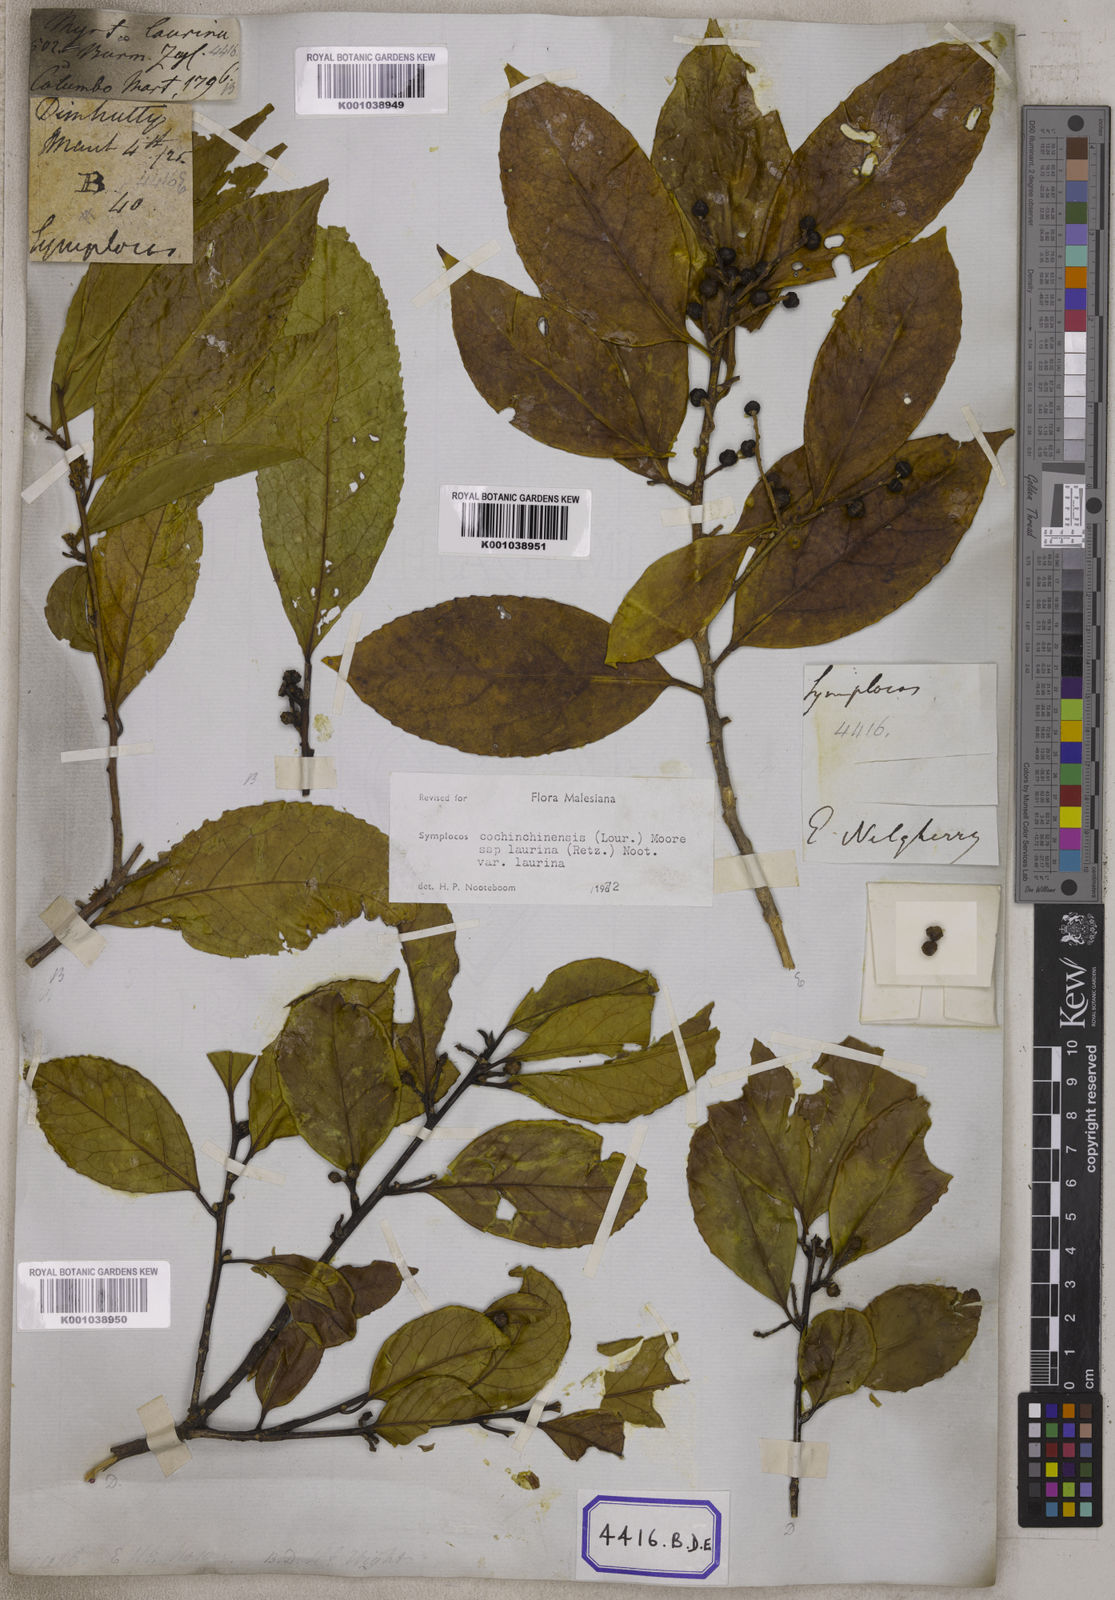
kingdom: Plantae
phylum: Tracheophyta
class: Magnoliopsida
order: Ericales
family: Symplocaceae
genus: Symplocos
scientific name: Symplocos
